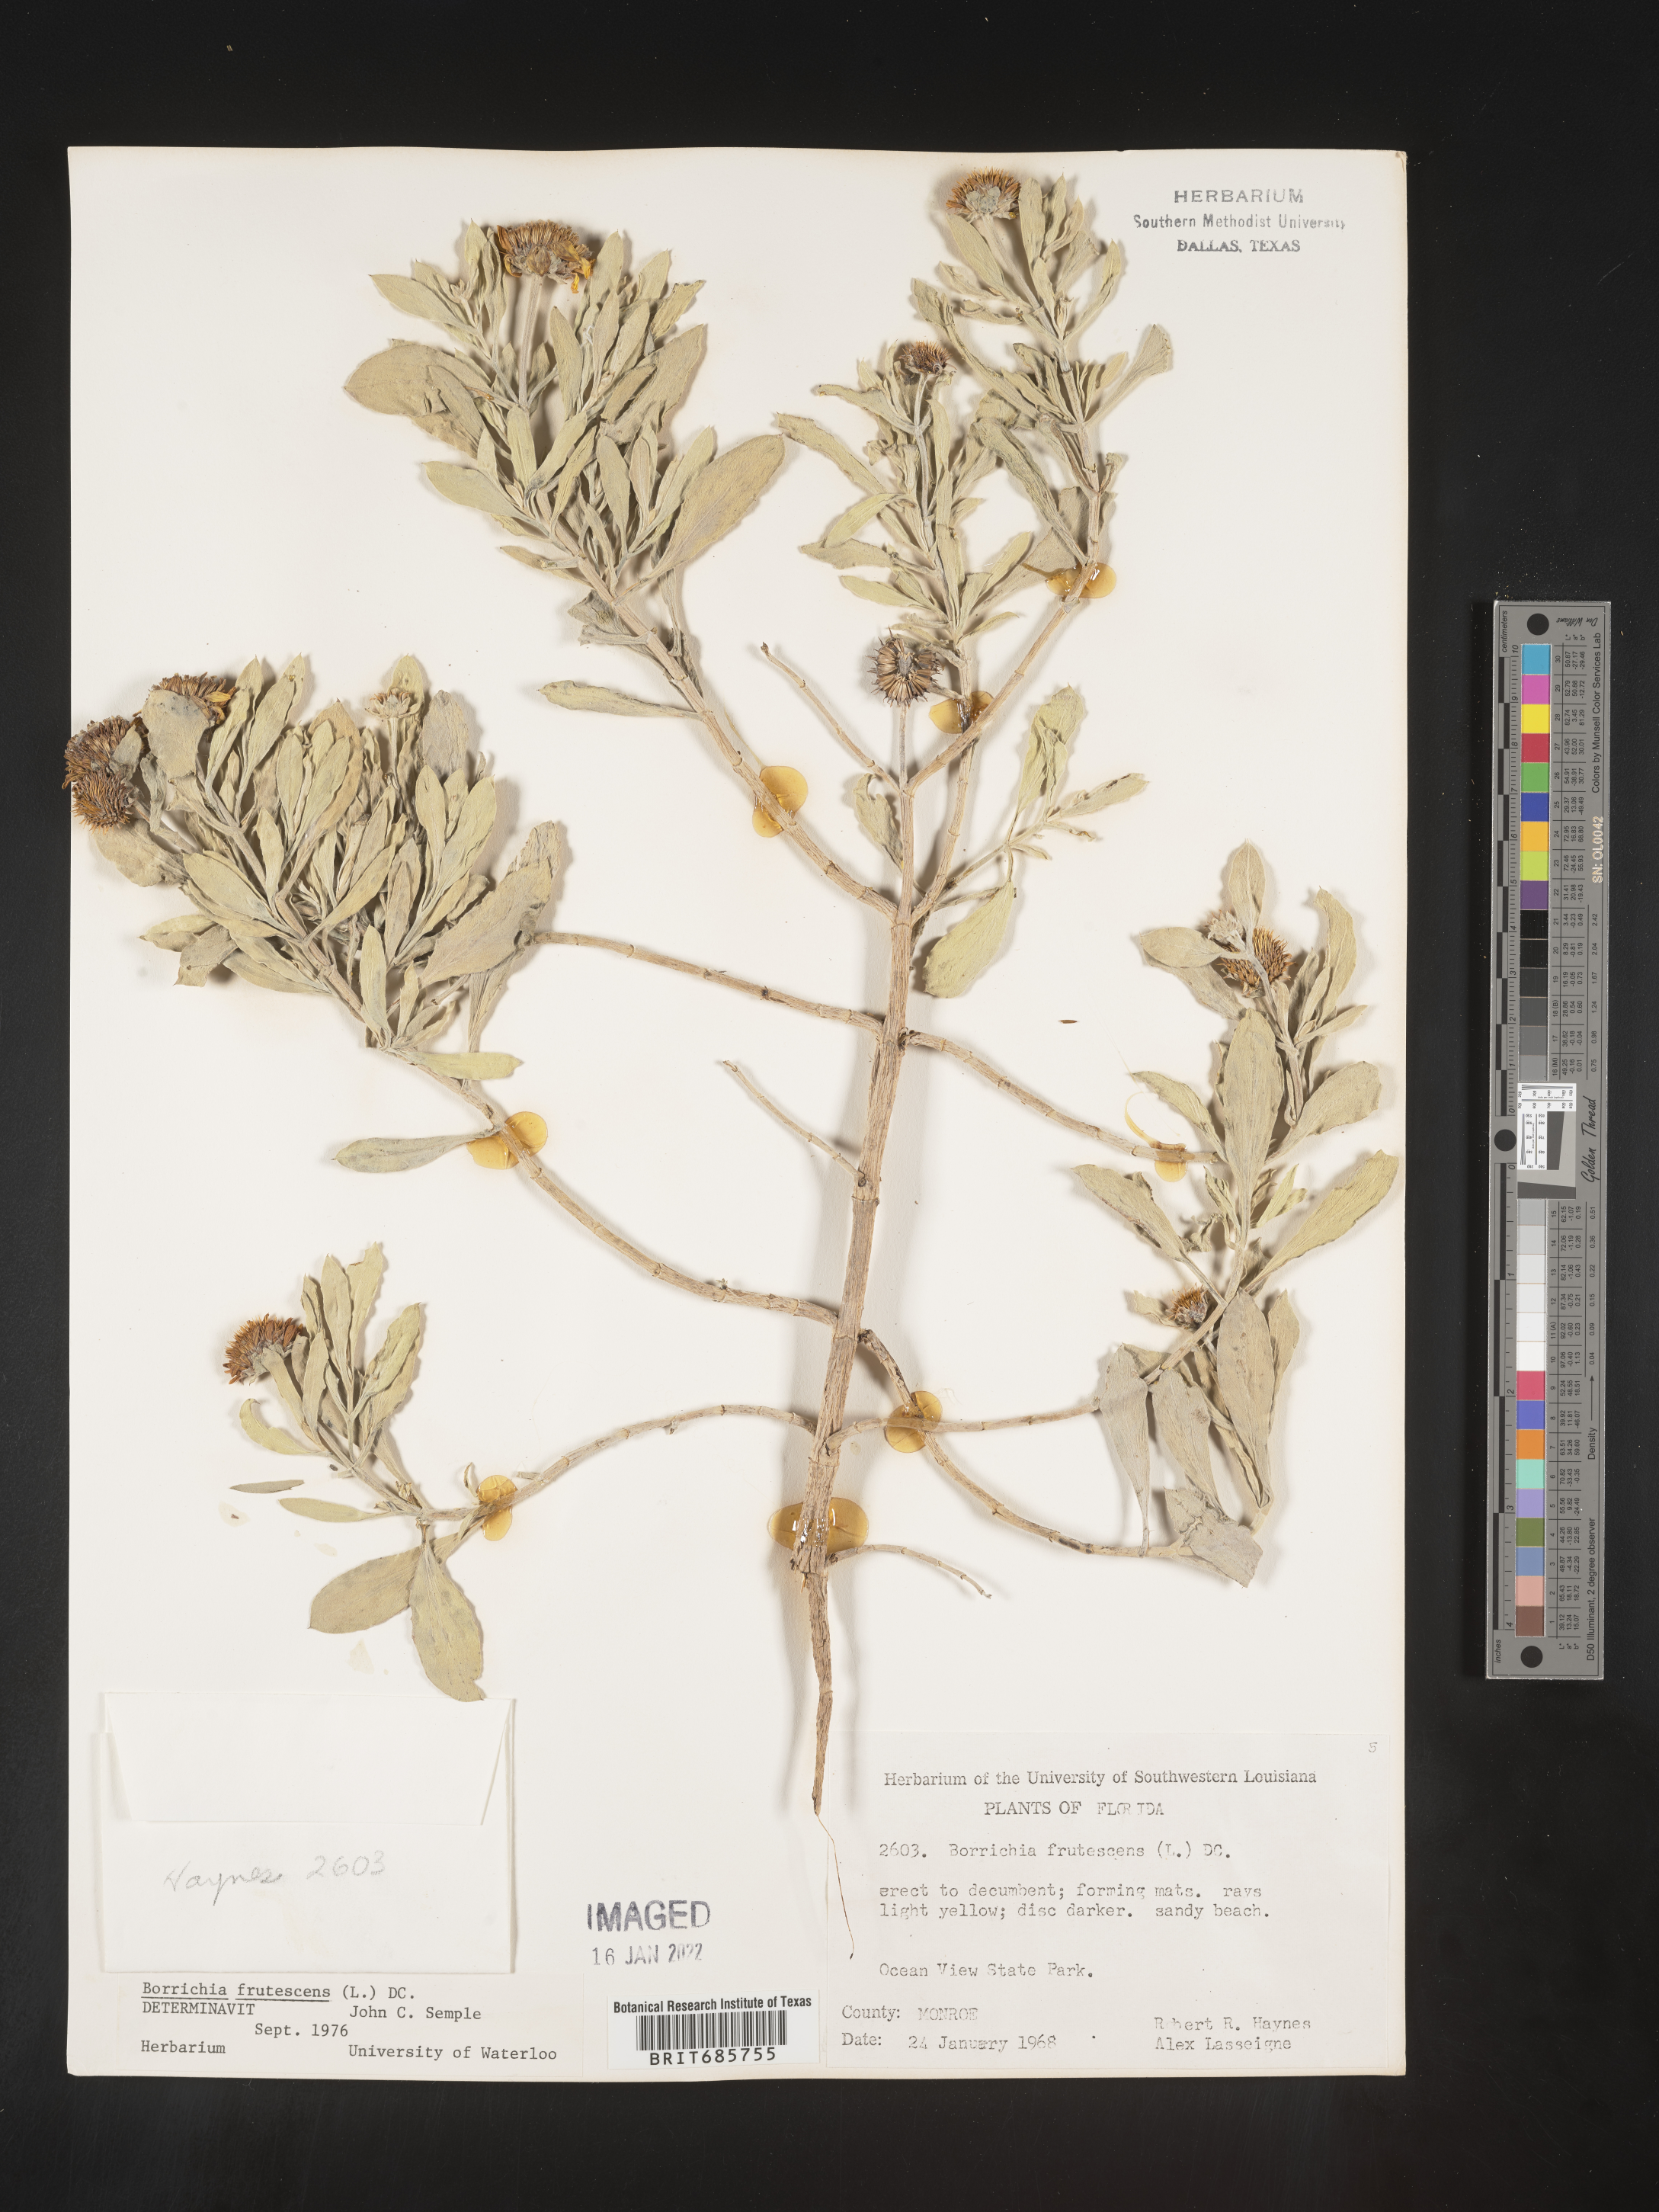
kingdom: Plantae
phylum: Tracheophyta
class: Magnoliopsida
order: Asterales
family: Asteraceae
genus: Borrichia
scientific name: Borrichia frutescens
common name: Sea oxeye
